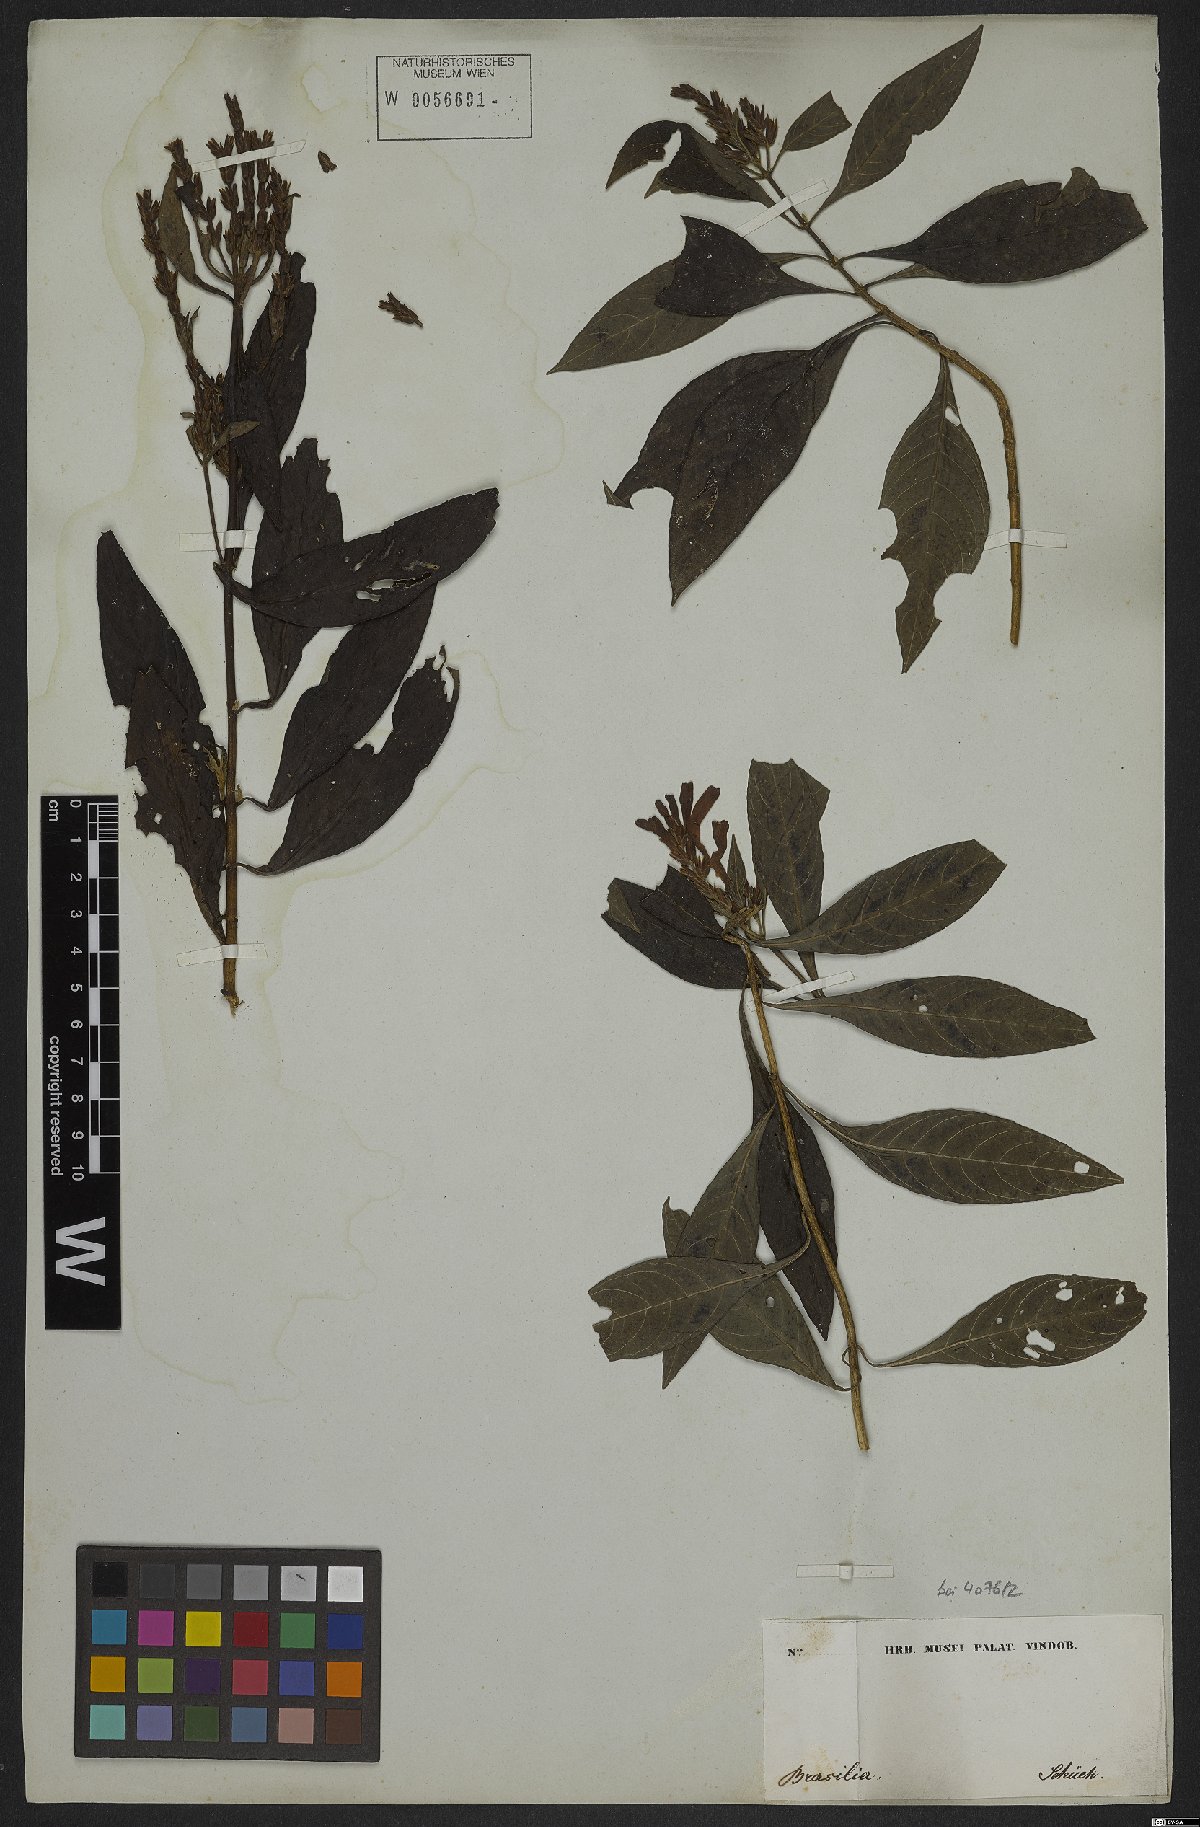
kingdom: Plantae
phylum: Tracheophyta
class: Magnoliopsida
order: Lamiales
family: Acanthaceae
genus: Aphelandra
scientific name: Aphelandra longiflora
